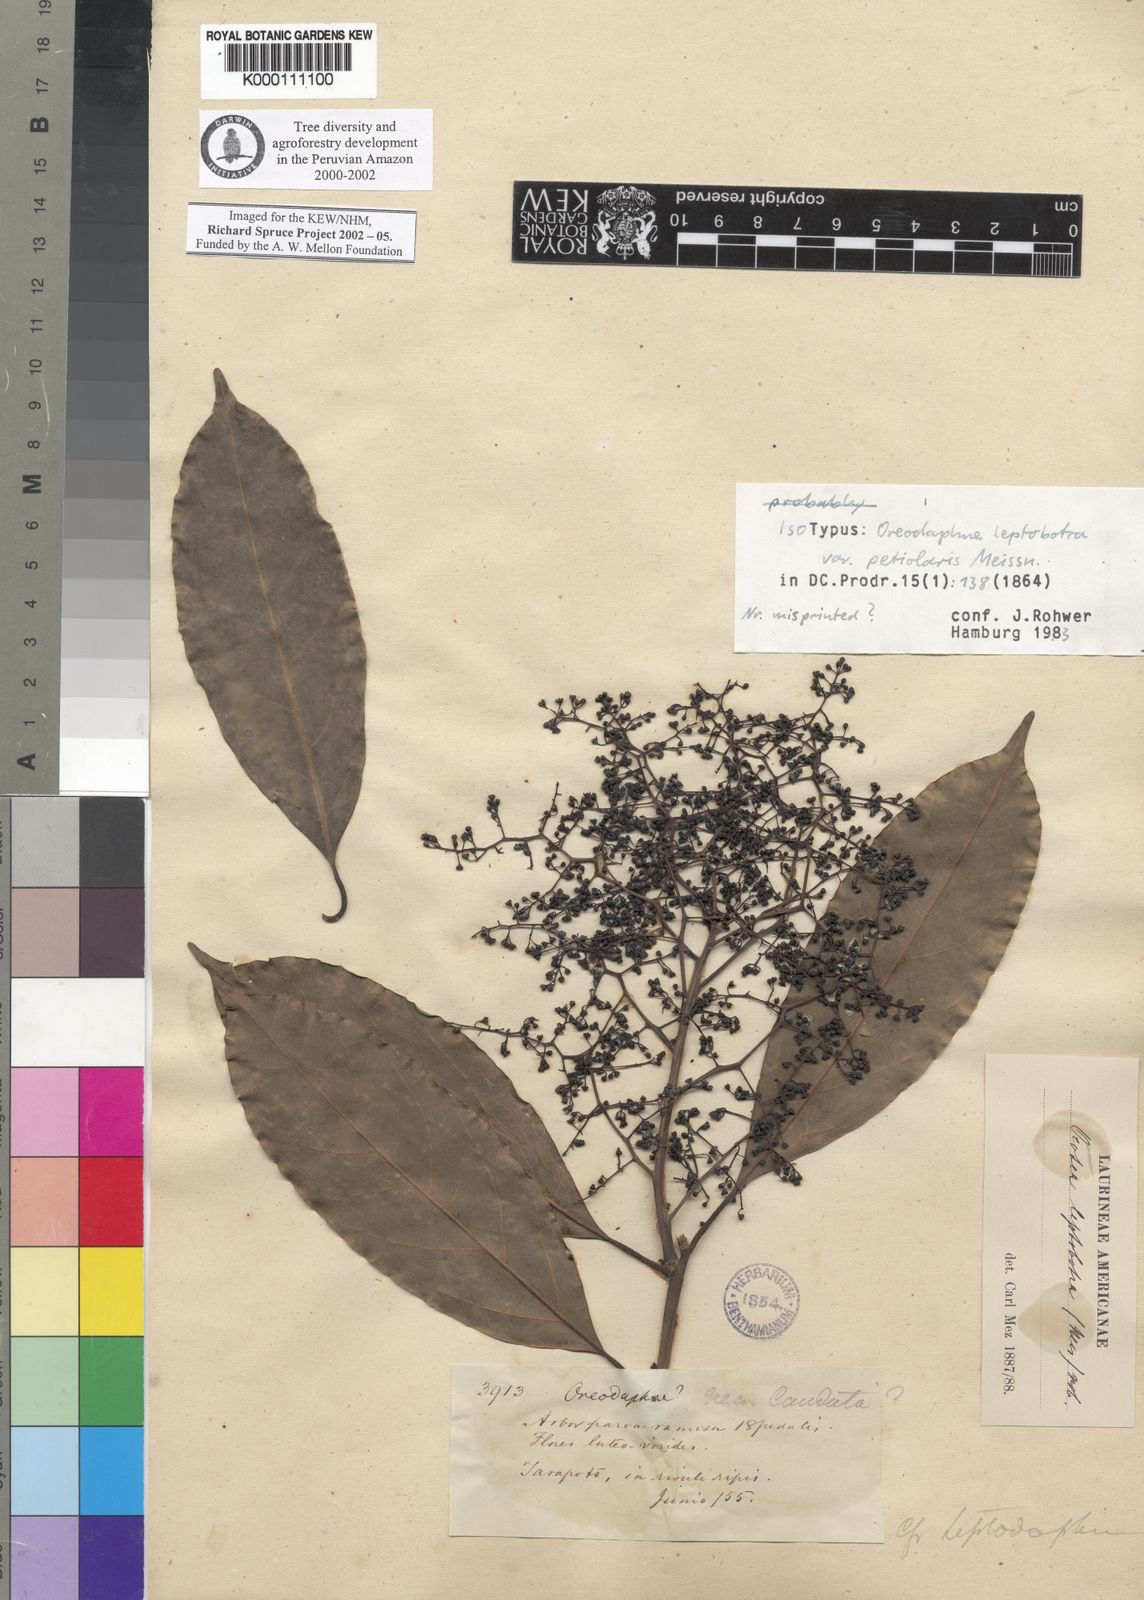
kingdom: Plantae
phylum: Tracheophyta
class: Magnoliopsida
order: Laurales
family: Lauraceae
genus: Ocotea
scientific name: Ocotea leptobotra
